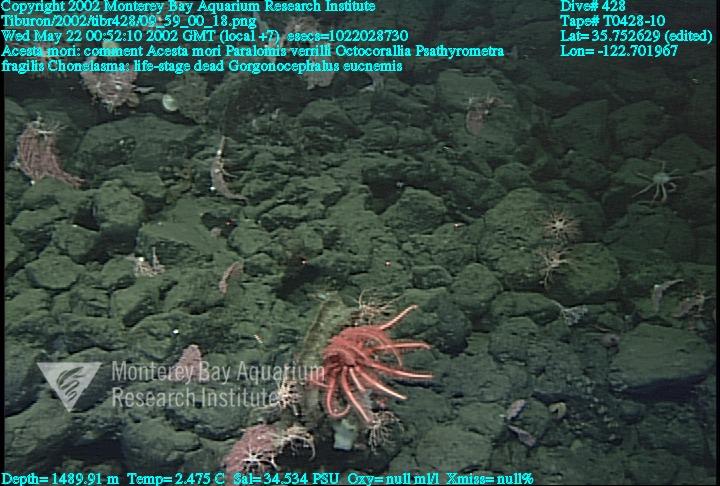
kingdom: Animalia
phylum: Porifera
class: Hexactinellida
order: Sceptrulophora
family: Euretidae
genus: Chonelasma
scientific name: Chonelasma
